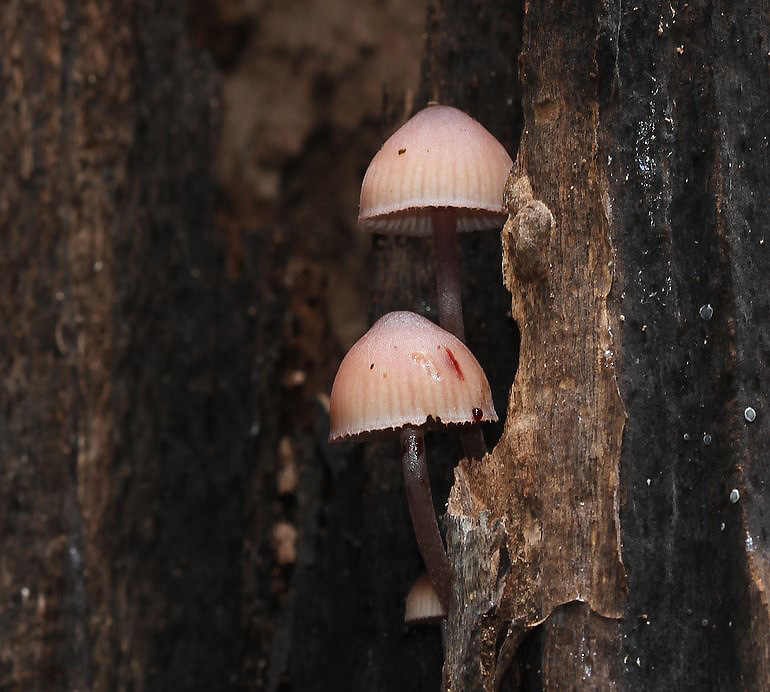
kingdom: Fungi
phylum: Basidiomycota
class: Agaricomycetes
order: Agaricales
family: Mycenaceae
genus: Mycena
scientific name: Mycena haematopus
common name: blødende huesvamp
